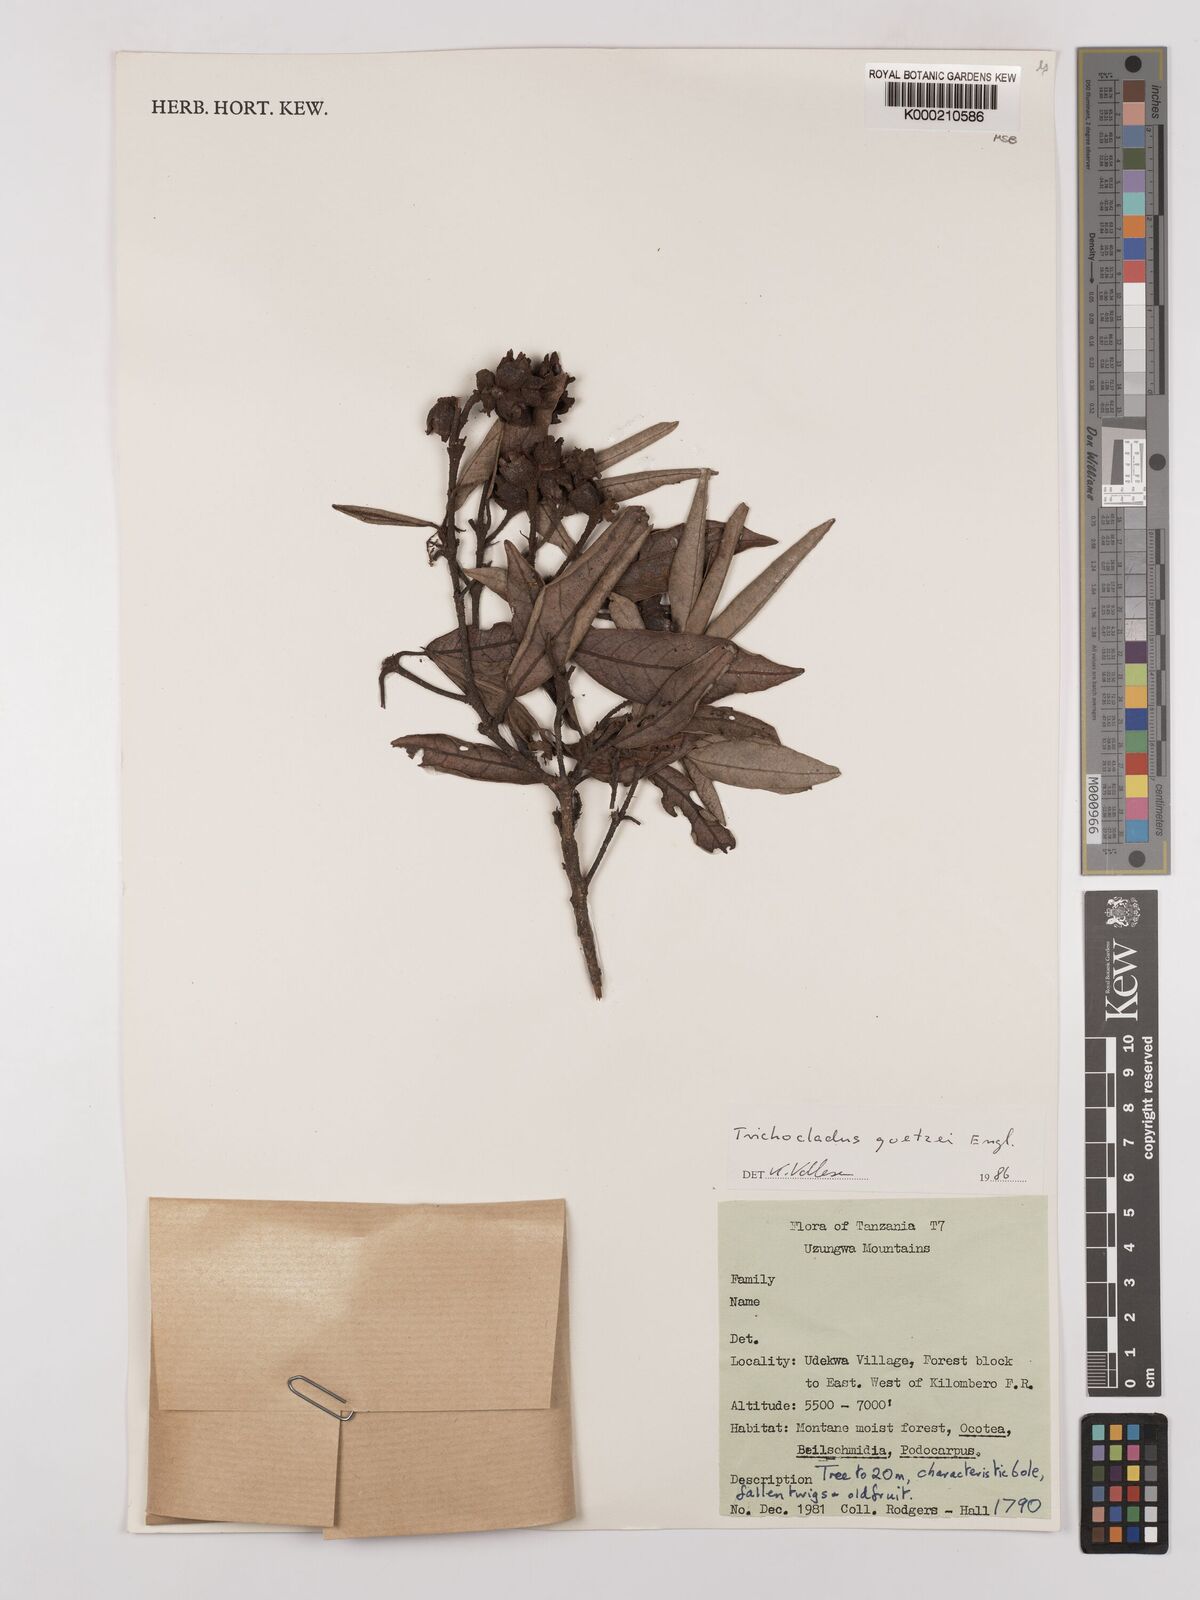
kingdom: Plantae
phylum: Tracheophyta
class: Magnoliopsida
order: Saxifragales
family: Hamamelidaceae
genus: Trichocladus
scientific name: Trichocladus goetzei
